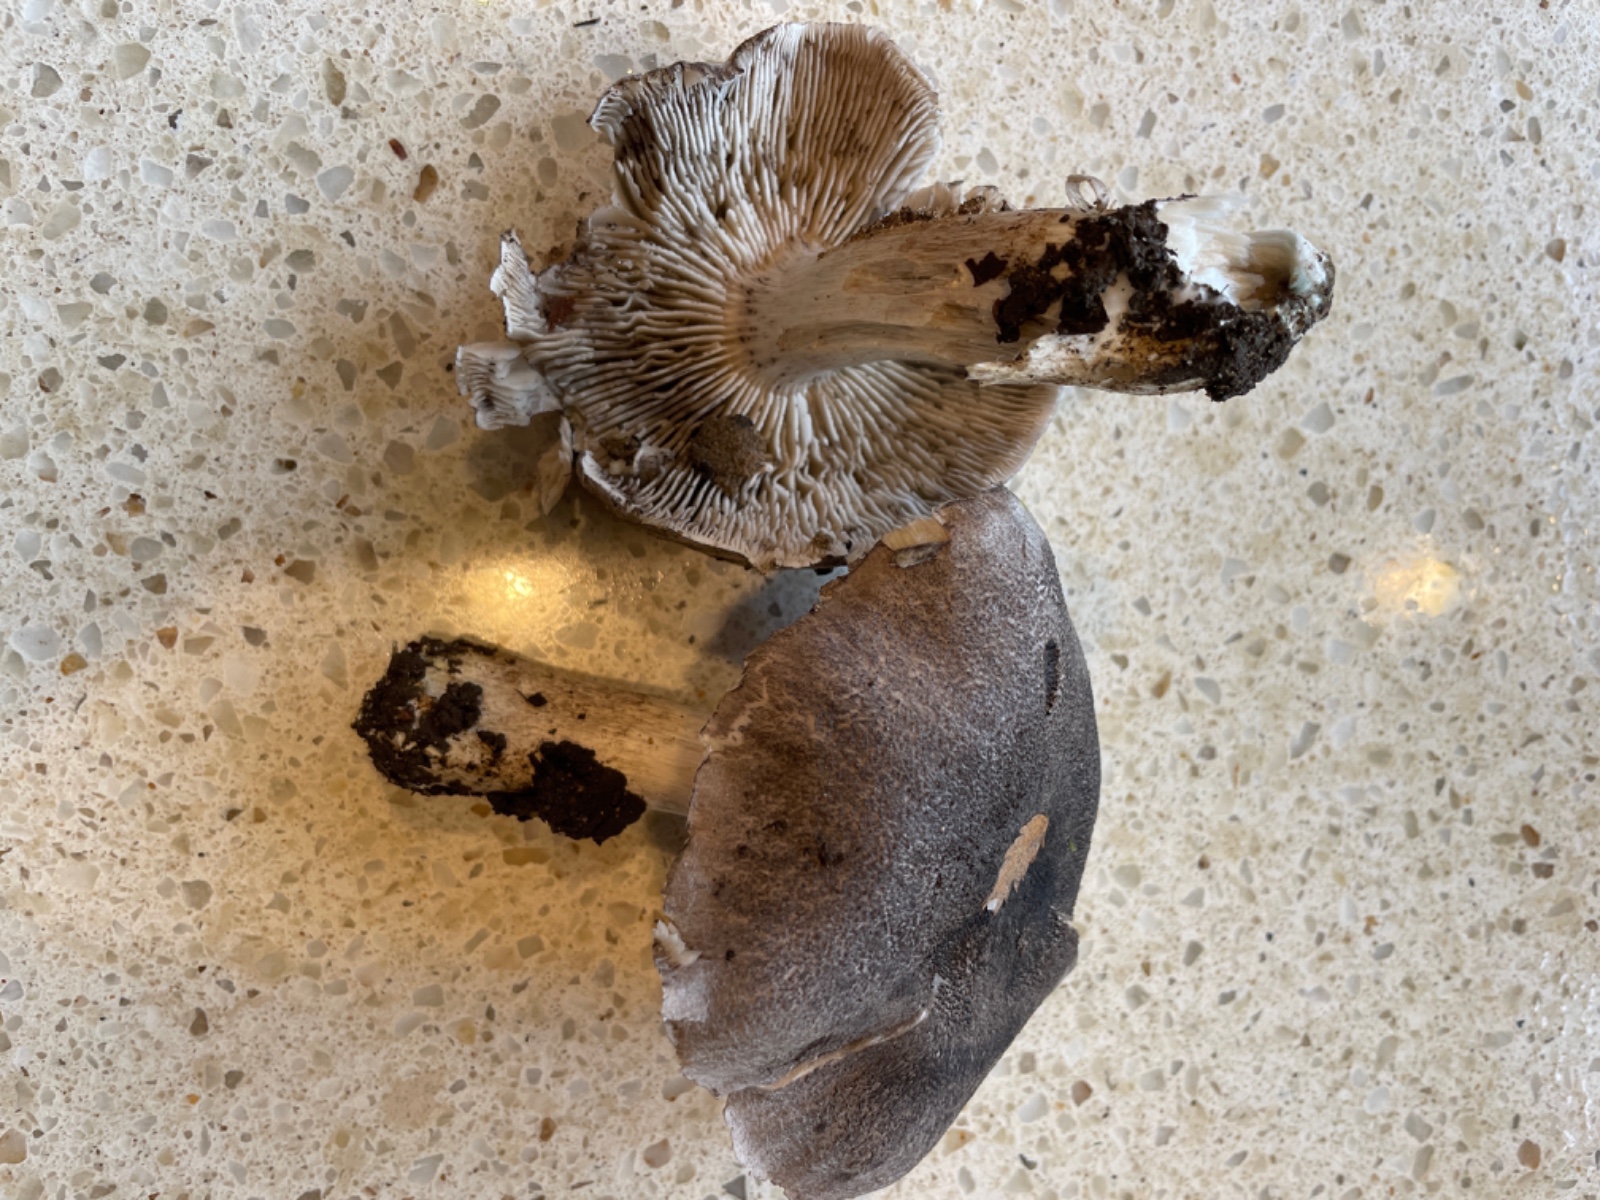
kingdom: Fungi
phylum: Basidiomycota
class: Agaricomycetes
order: Agaricales
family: Tricholomataceae
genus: Tricholoma
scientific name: Tricholoma
